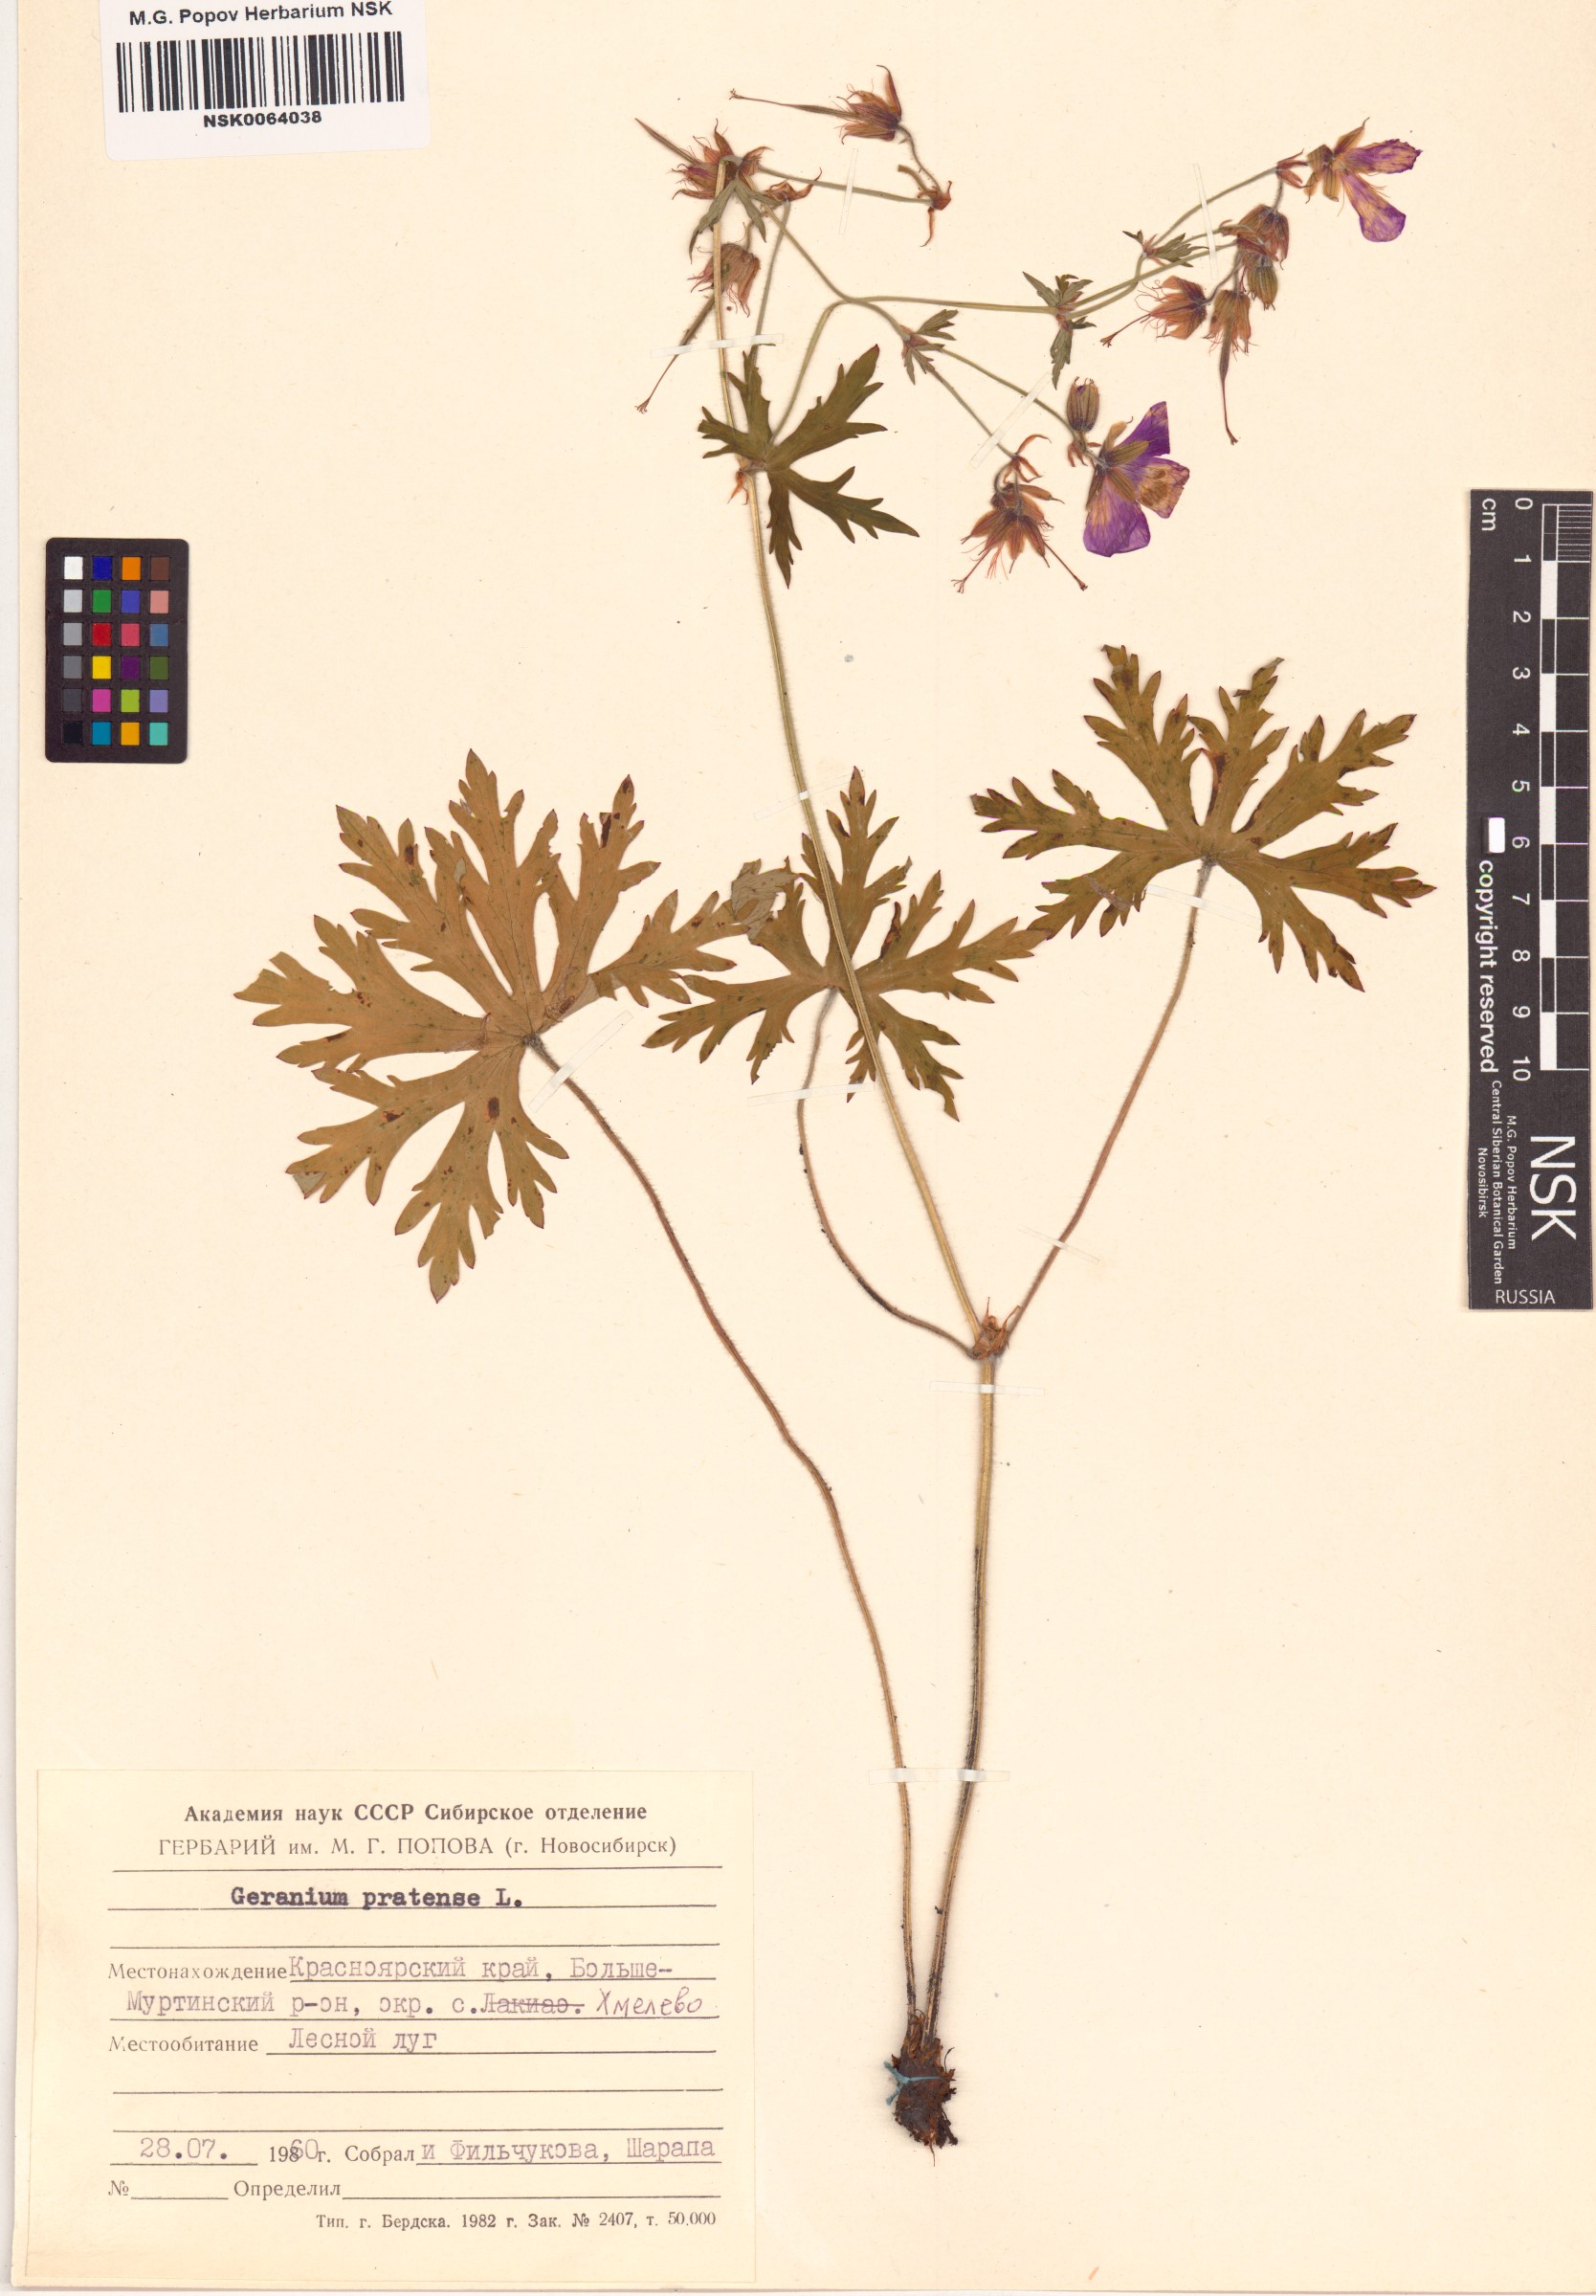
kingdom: Plantae
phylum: Tracheophyta
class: Magnoliopsida
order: Geraniales
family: Geraniaceae
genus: Geranium
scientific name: Geranium pratense
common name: Meadow crane's-bill
